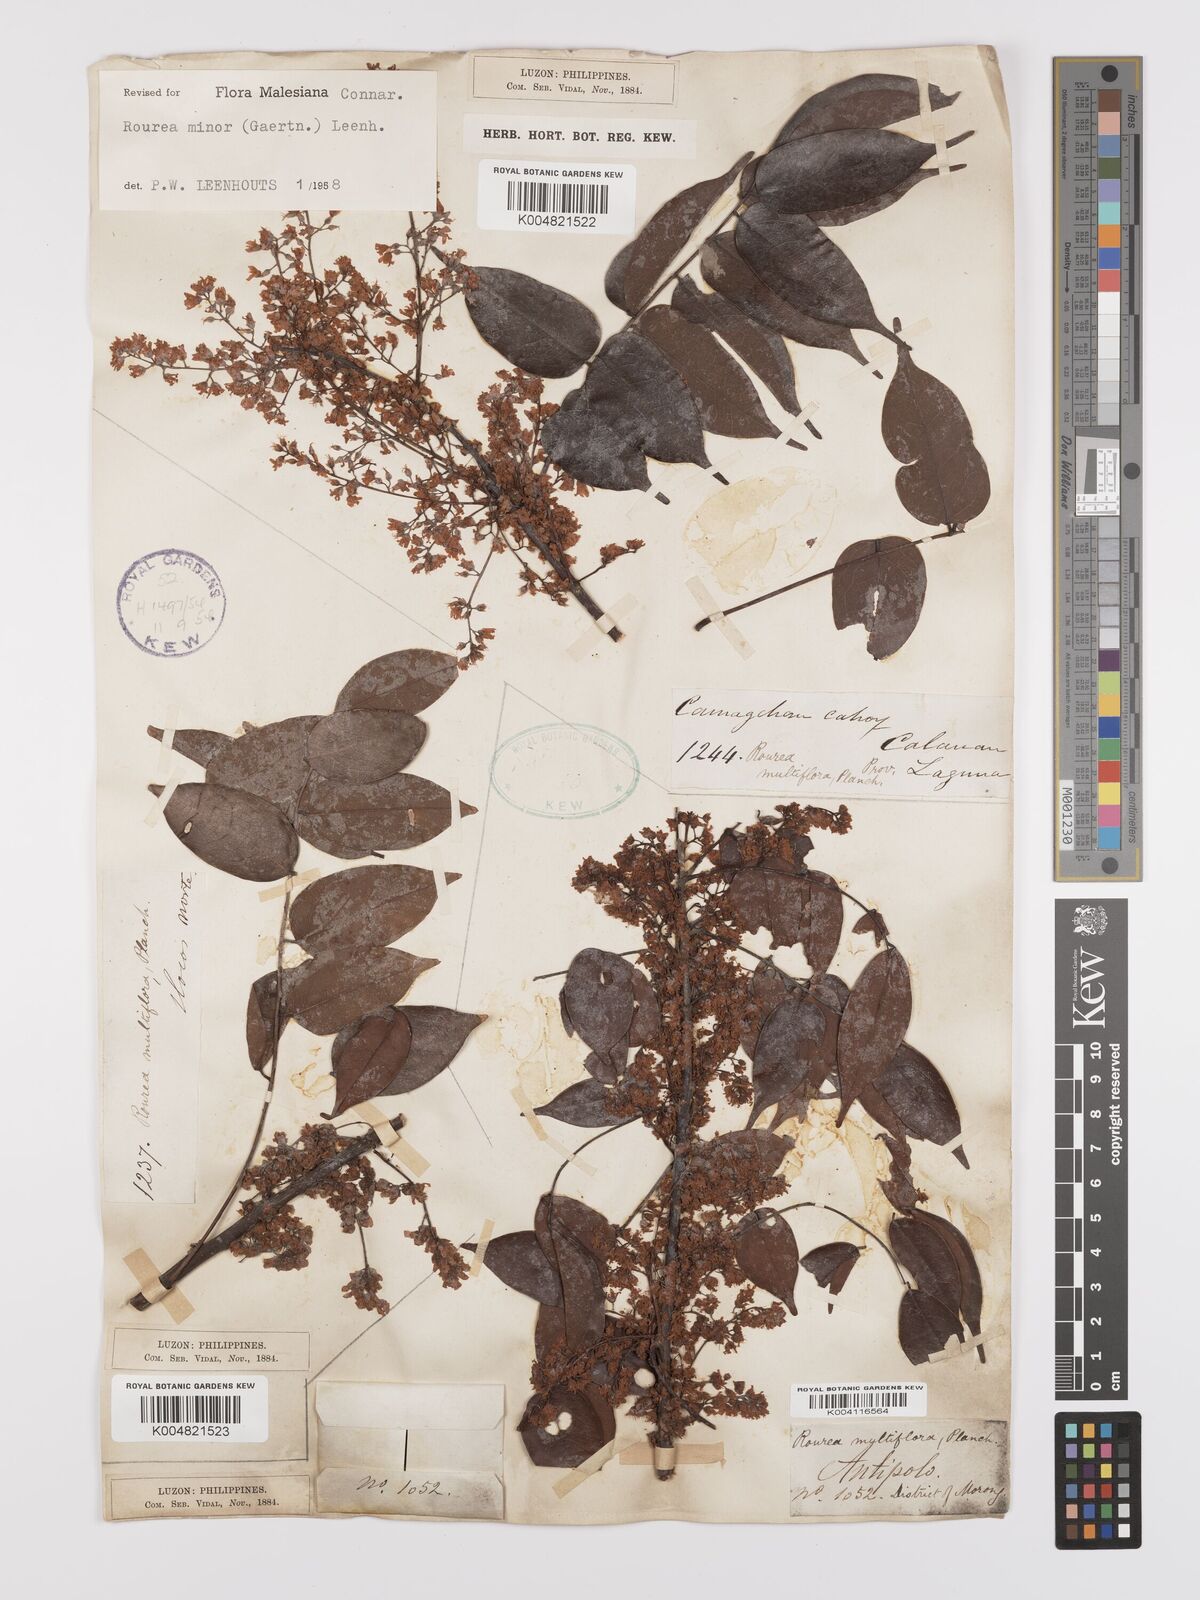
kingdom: Plantae
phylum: Tracheophyta
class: Magnoliopsida
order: Oxalidales
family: Connaraceae
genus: Rourea
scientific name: Rourea minor
